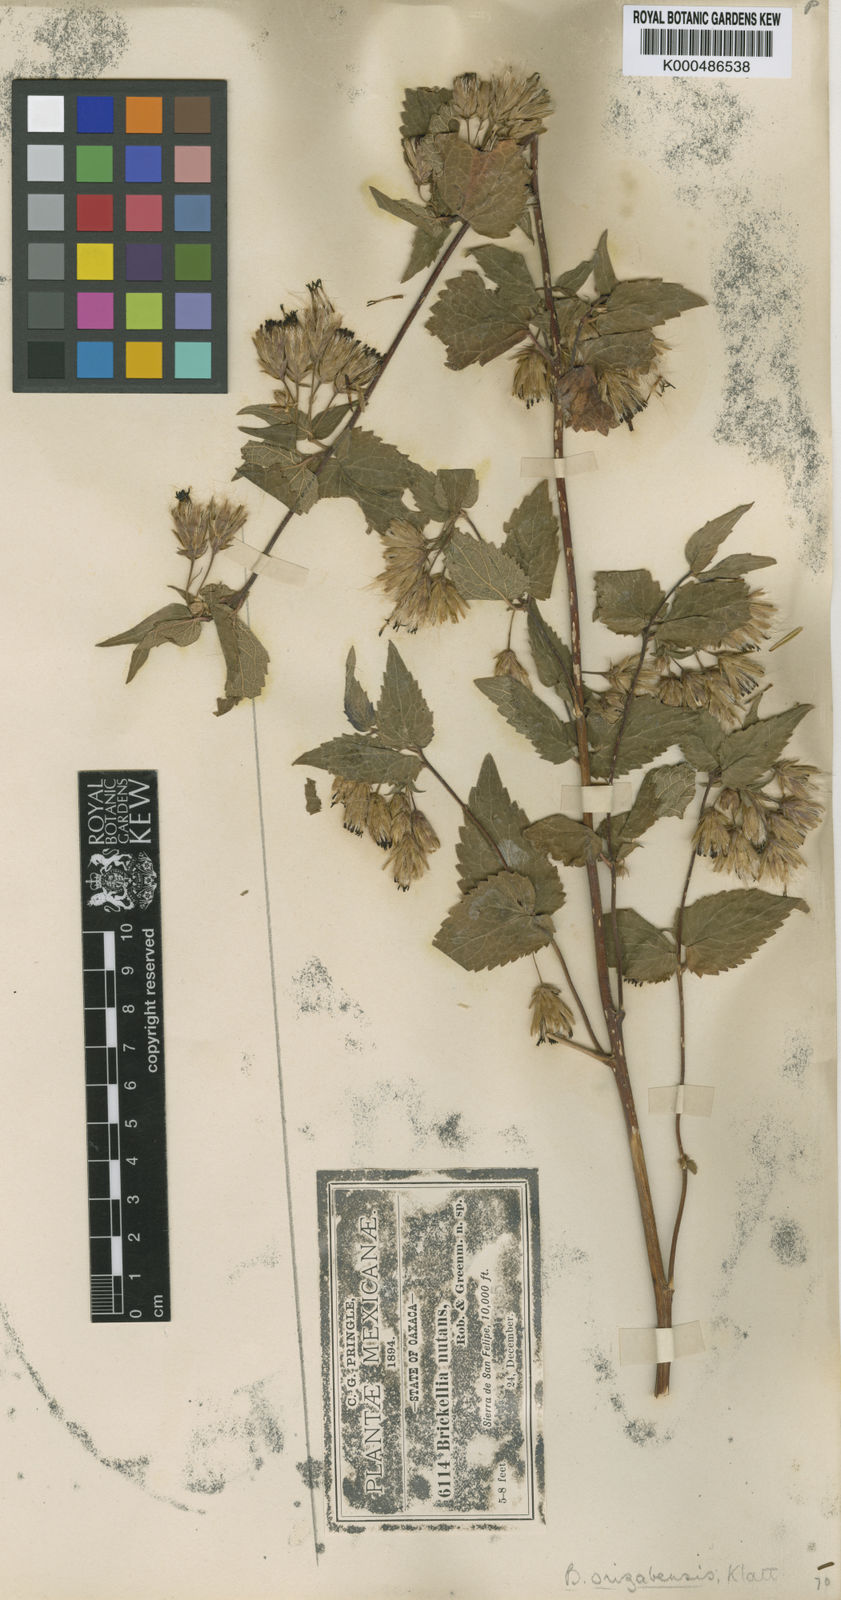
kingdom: Plantae
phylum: Tracheophyta
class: Magnoliopsida
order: Asterales
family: Asteraceae
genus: Brickellia
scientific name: Brickellia orizabaensis
